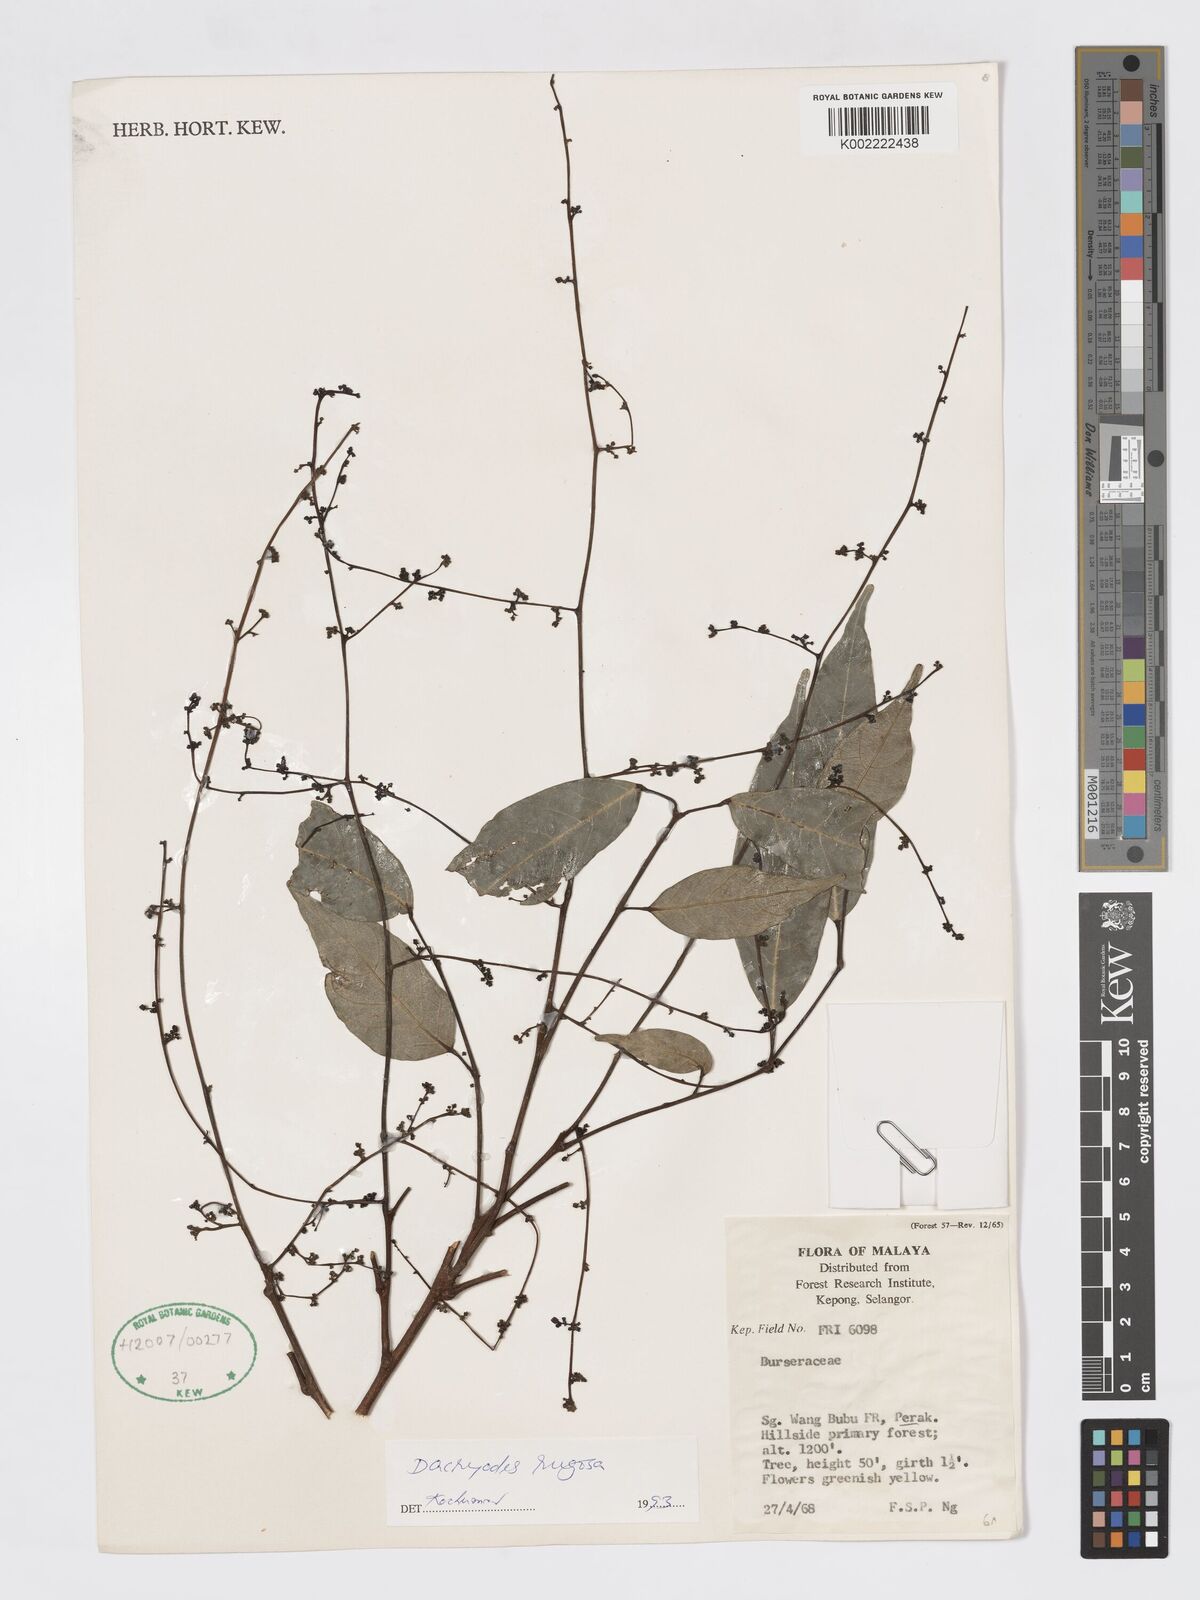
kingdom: Plantae
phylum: Tracheophyta
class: Magnoliopsida
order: Sapindales
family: Burseraceae
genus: Dacryodes
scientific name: Dacryodes rugosa
